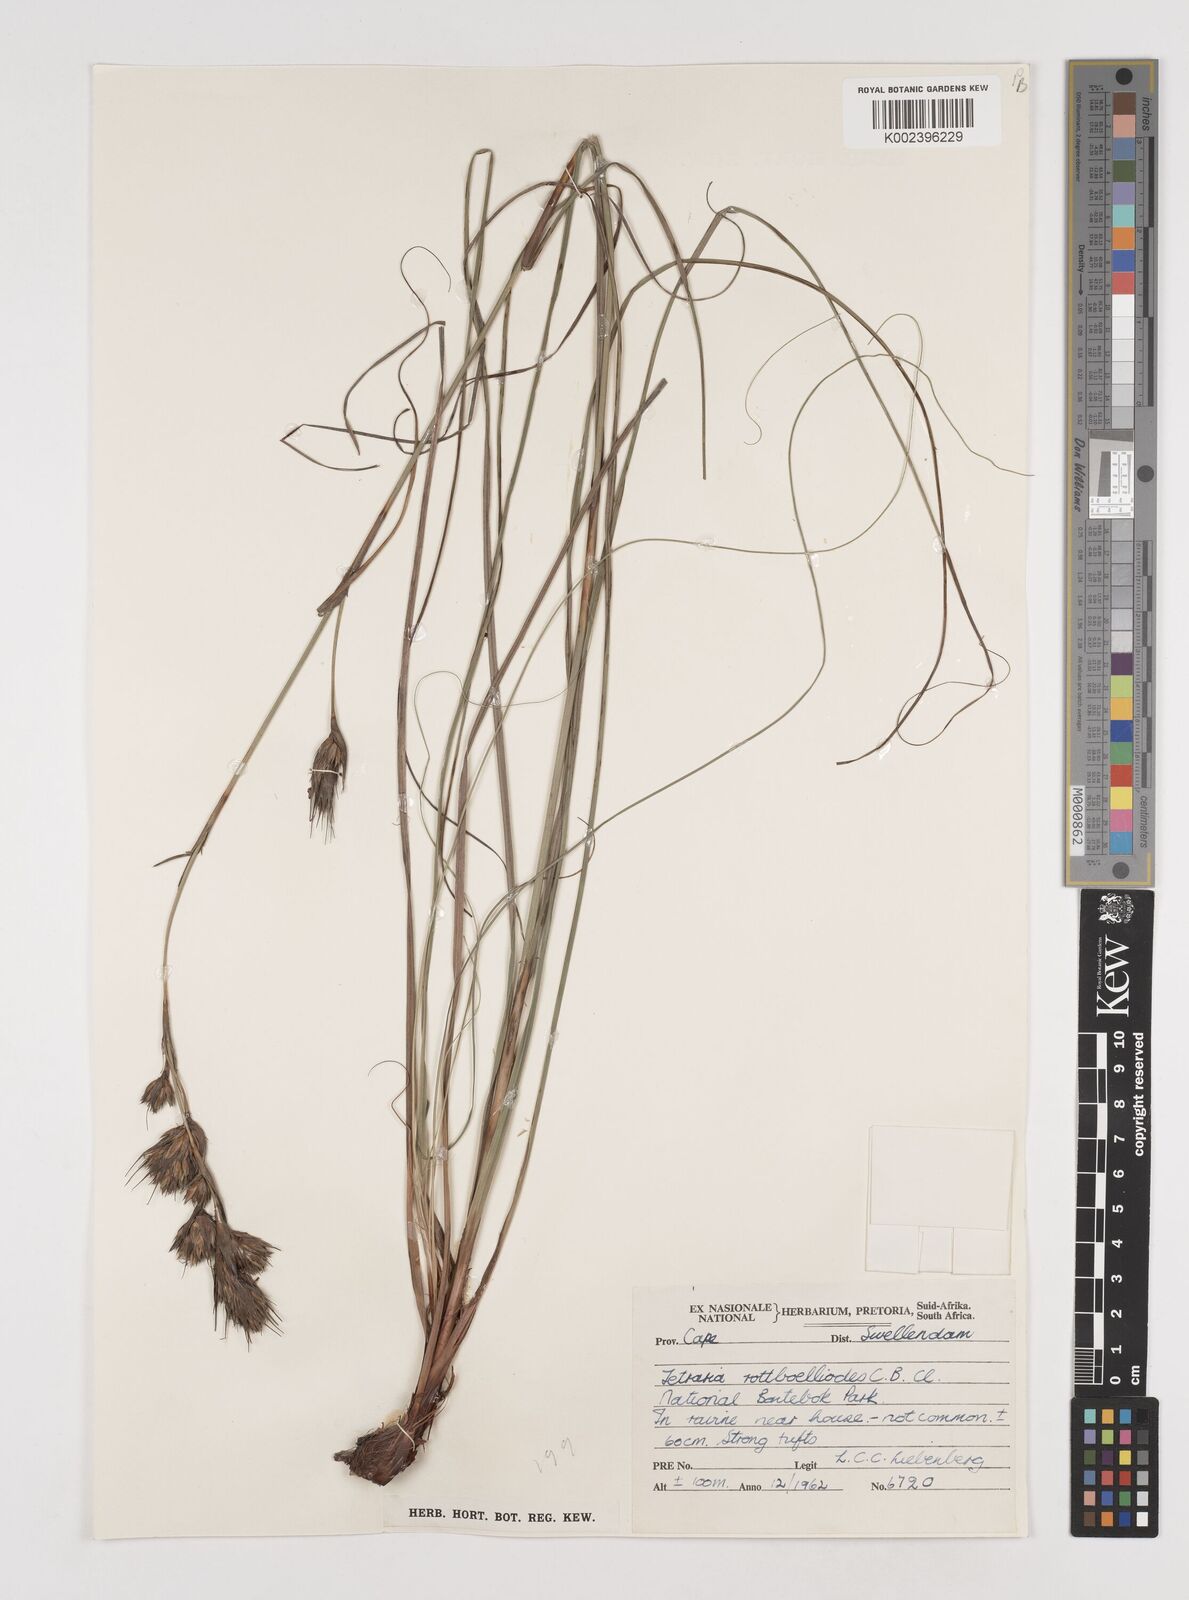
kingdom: Plantae
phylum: Tracheophyta
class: Liliopsida
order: Poales
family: Cyperaceae
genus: Tetraria
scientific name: Tetraria bromoides
